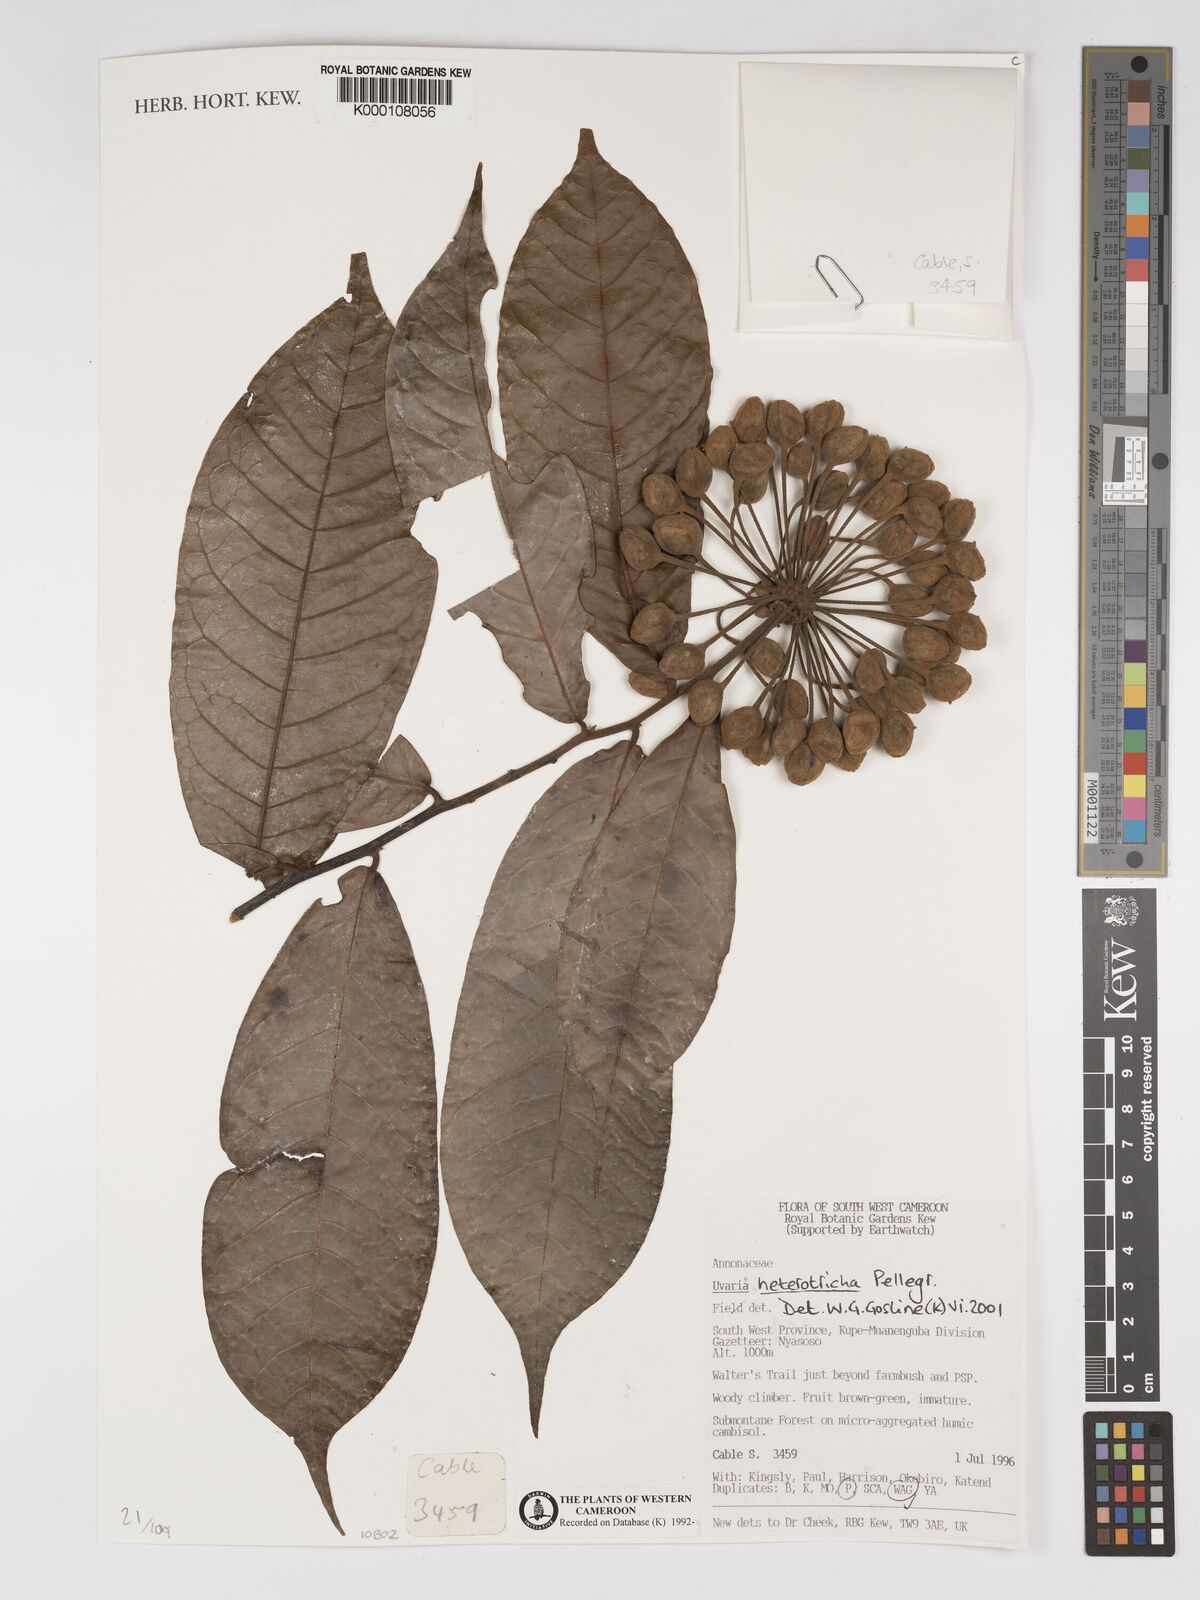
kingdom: Plantae
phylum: Tracheophyta
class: Magnoliopsida
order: Magnoliales
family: Annonaceae
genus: Uvaria
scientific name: Uvaria heterotricha
